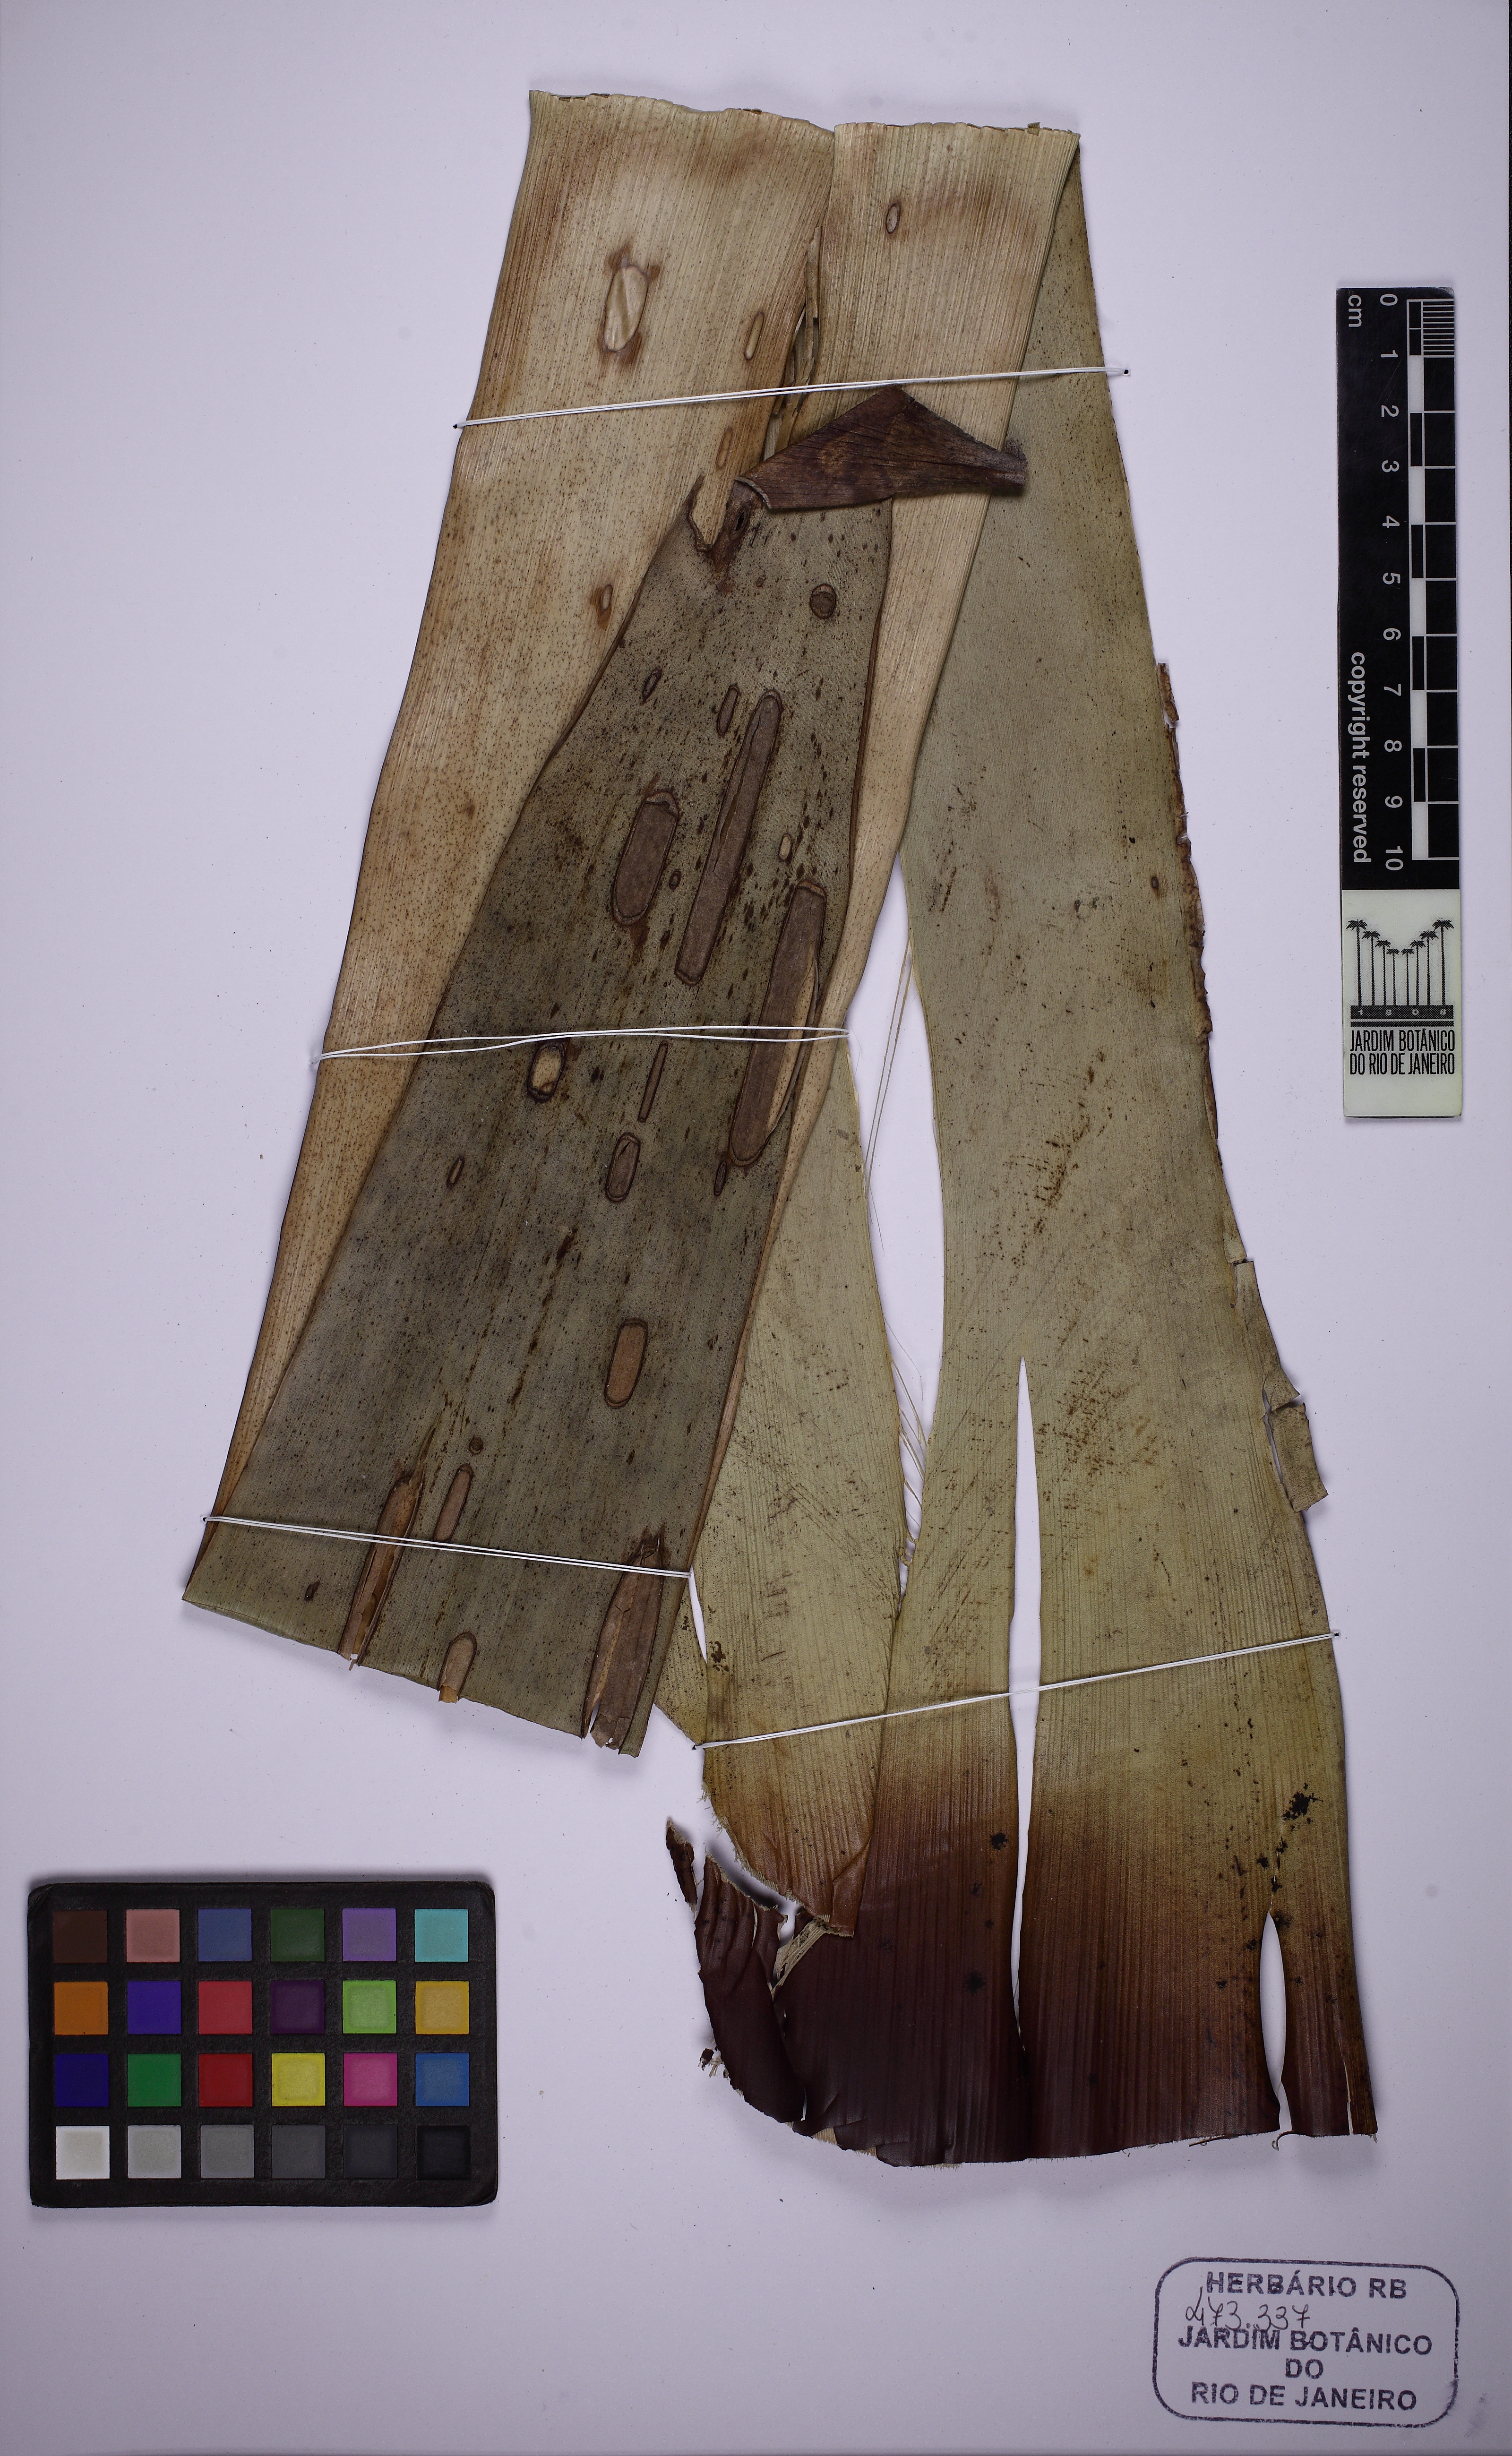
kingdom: Plantae
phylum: Tracheophyta
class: Liliopsida
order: Poales
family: Bromeliaceae
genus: Alcantarea
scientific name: Alcantarea extensa
